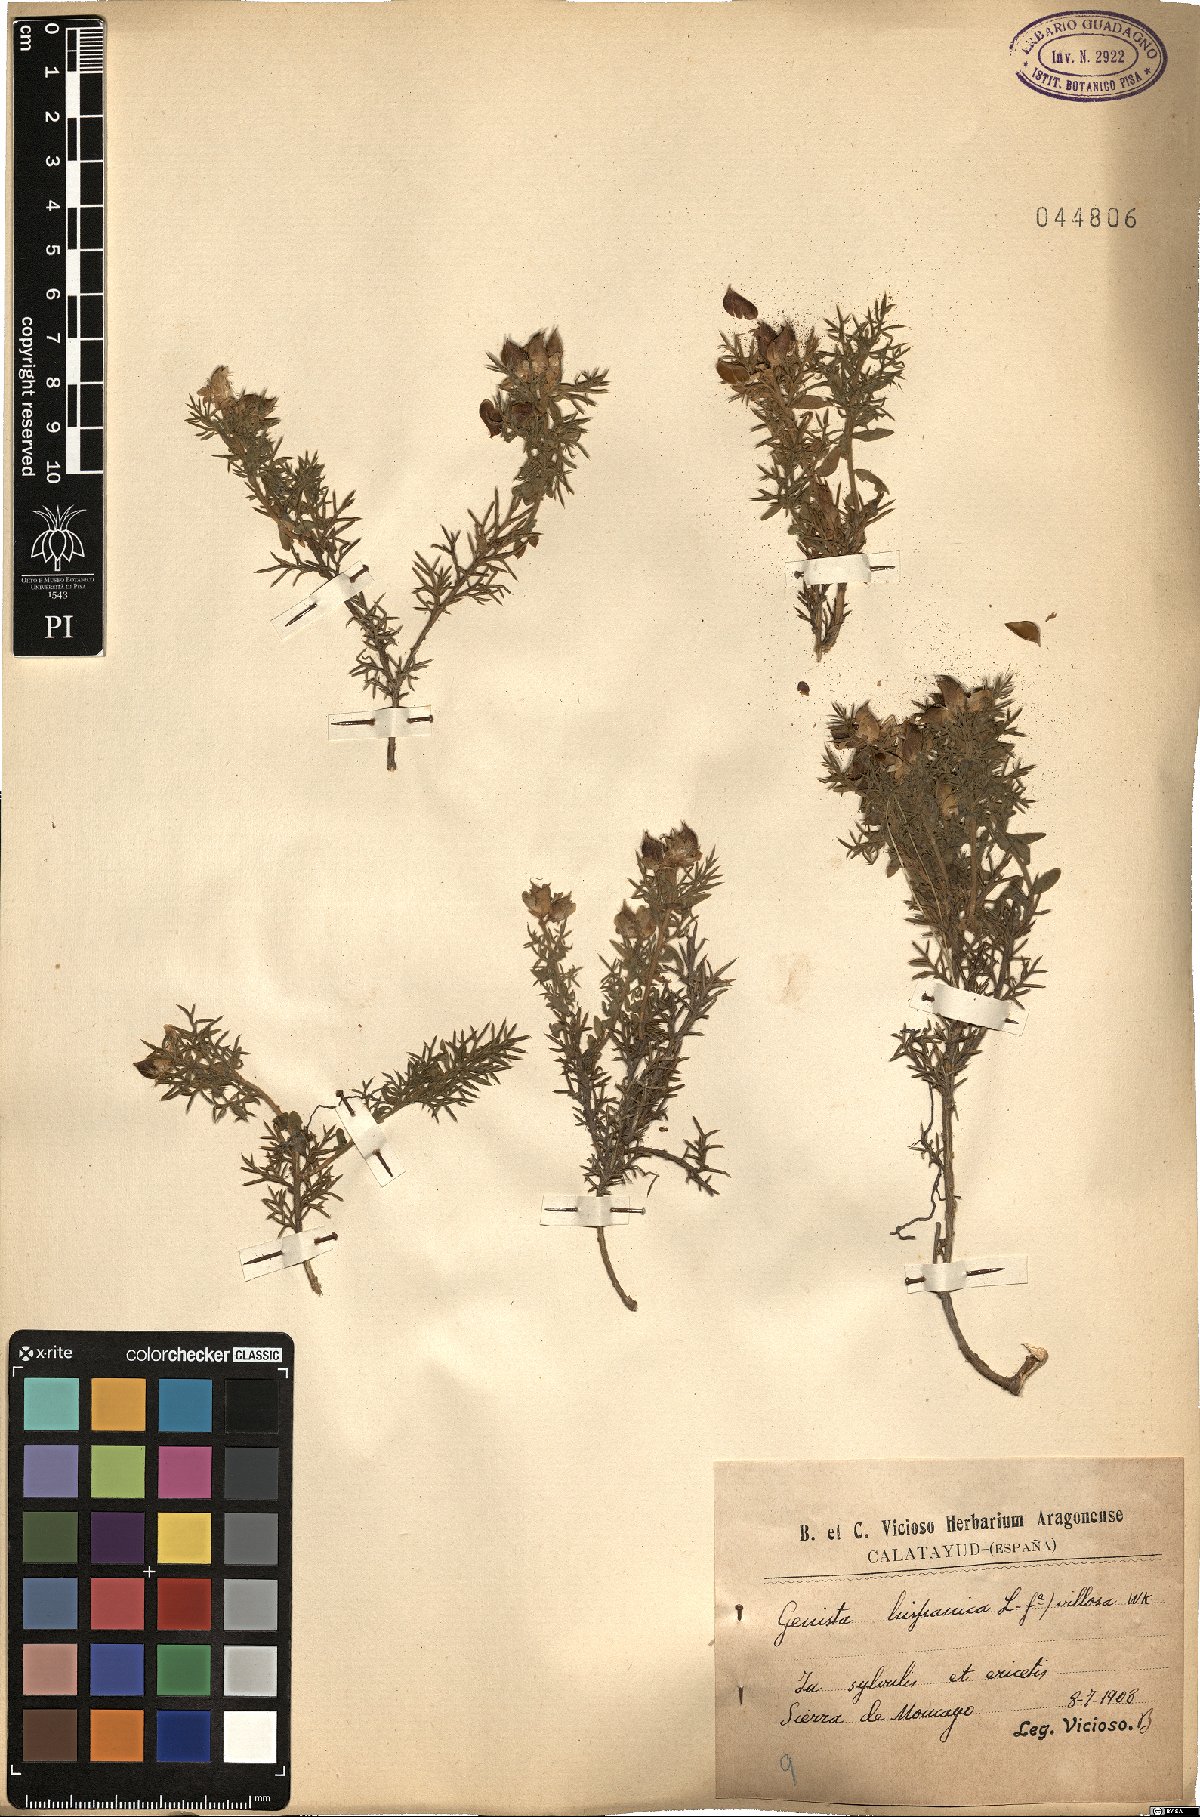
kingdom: Plantae
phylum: Tracheophyta
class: Magnoliopsida
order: Fabales
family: Fabaceae
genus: Genista
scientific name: Genista hispanica
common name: Spanish gorse
